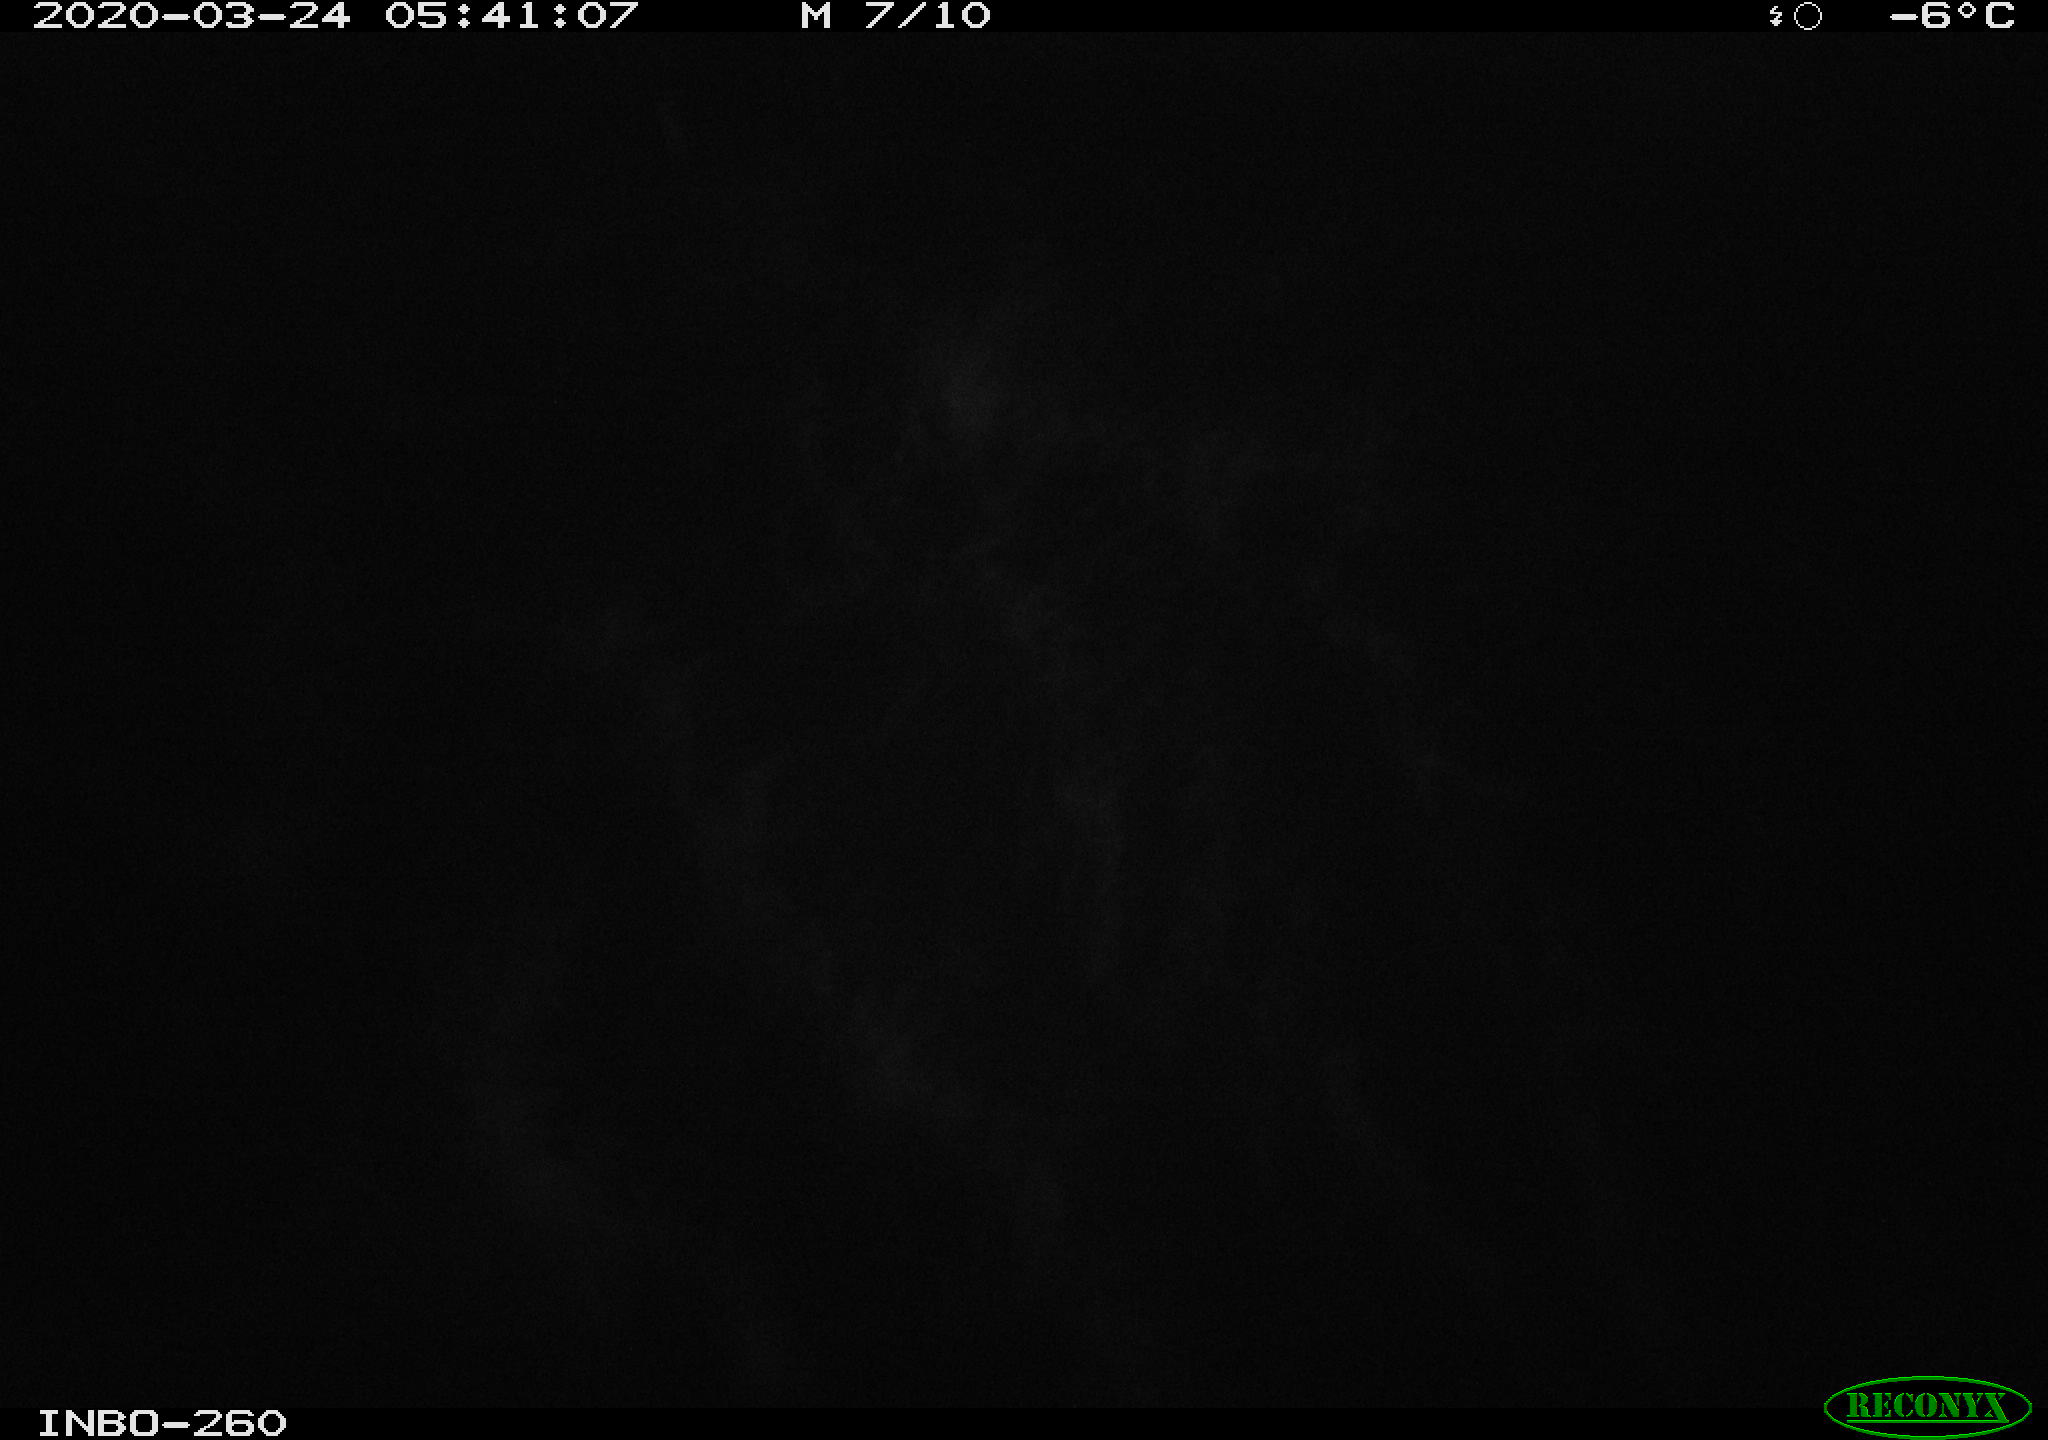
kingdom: Animalia
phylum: Chordata
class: Aves
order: Anseriformes
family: Anatidae
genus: Anas
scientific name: Anas platyrhynchos
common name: Mallard
